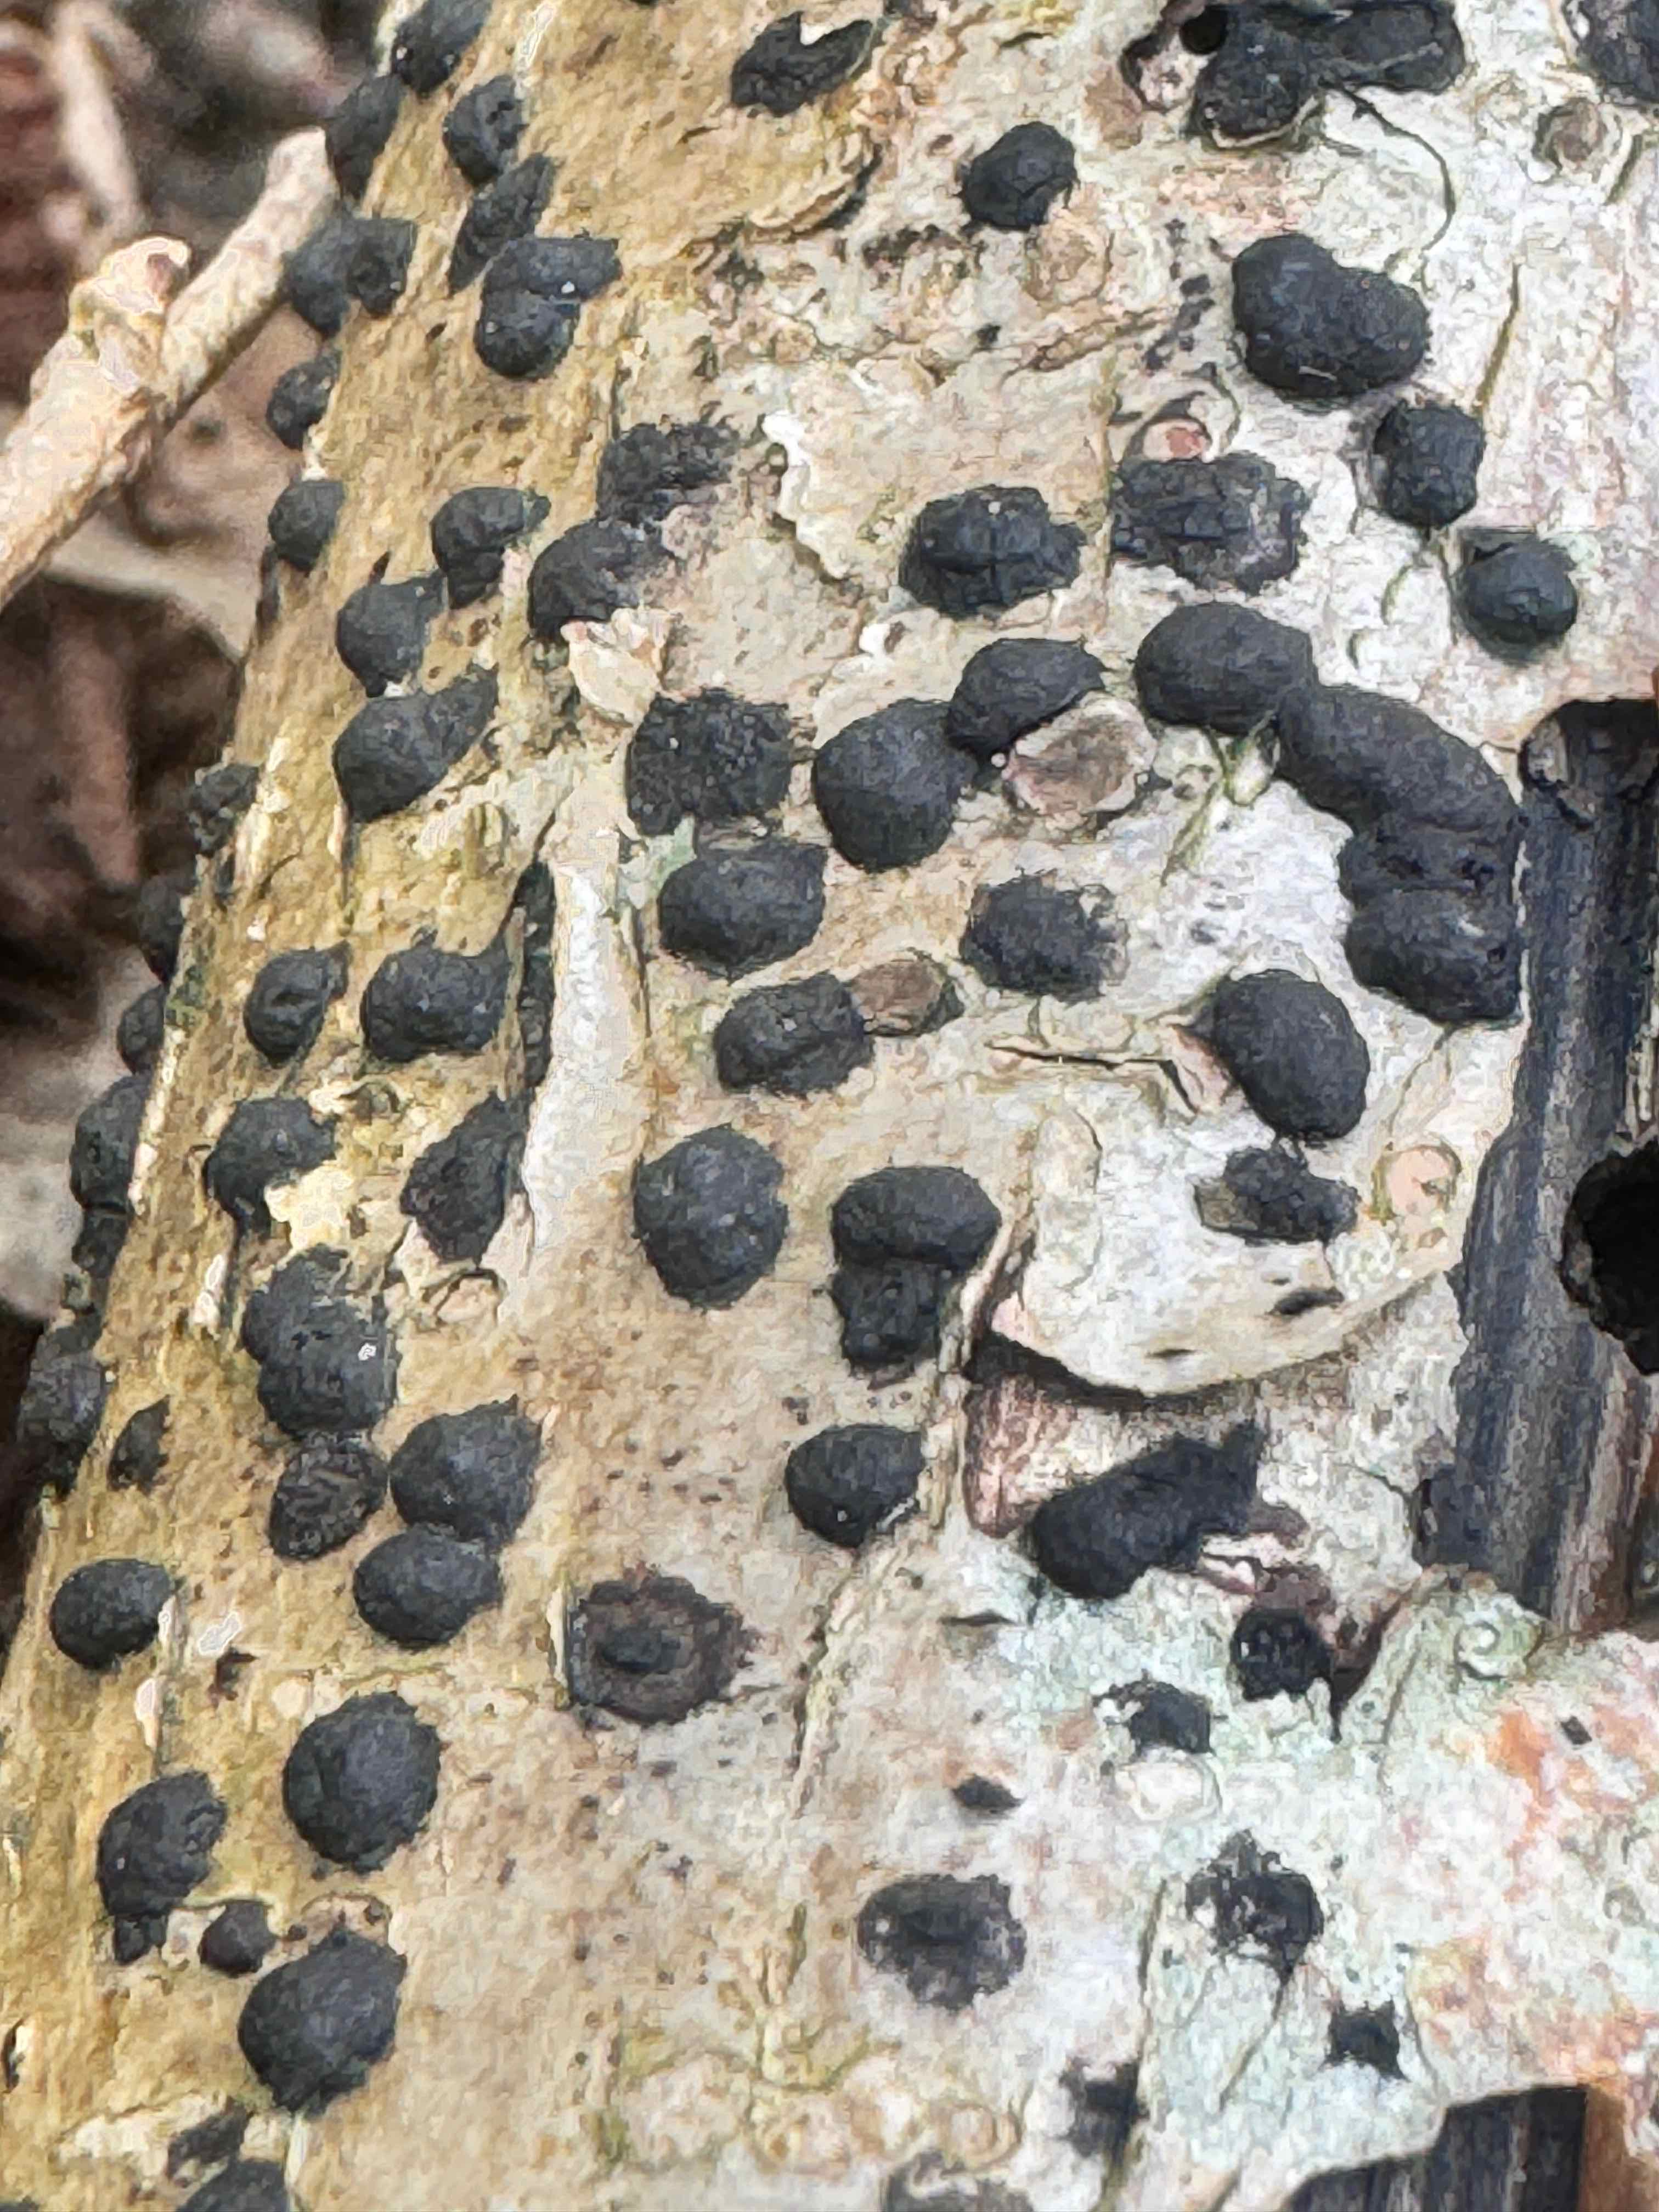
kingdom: Fungi
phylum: Ascomycota
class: Sordariomycetes
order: Xylariales
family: Hypoxylaceae
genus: Hypoxylon
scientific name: Hypoxylon fuscum
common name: kegleformet kulbær
